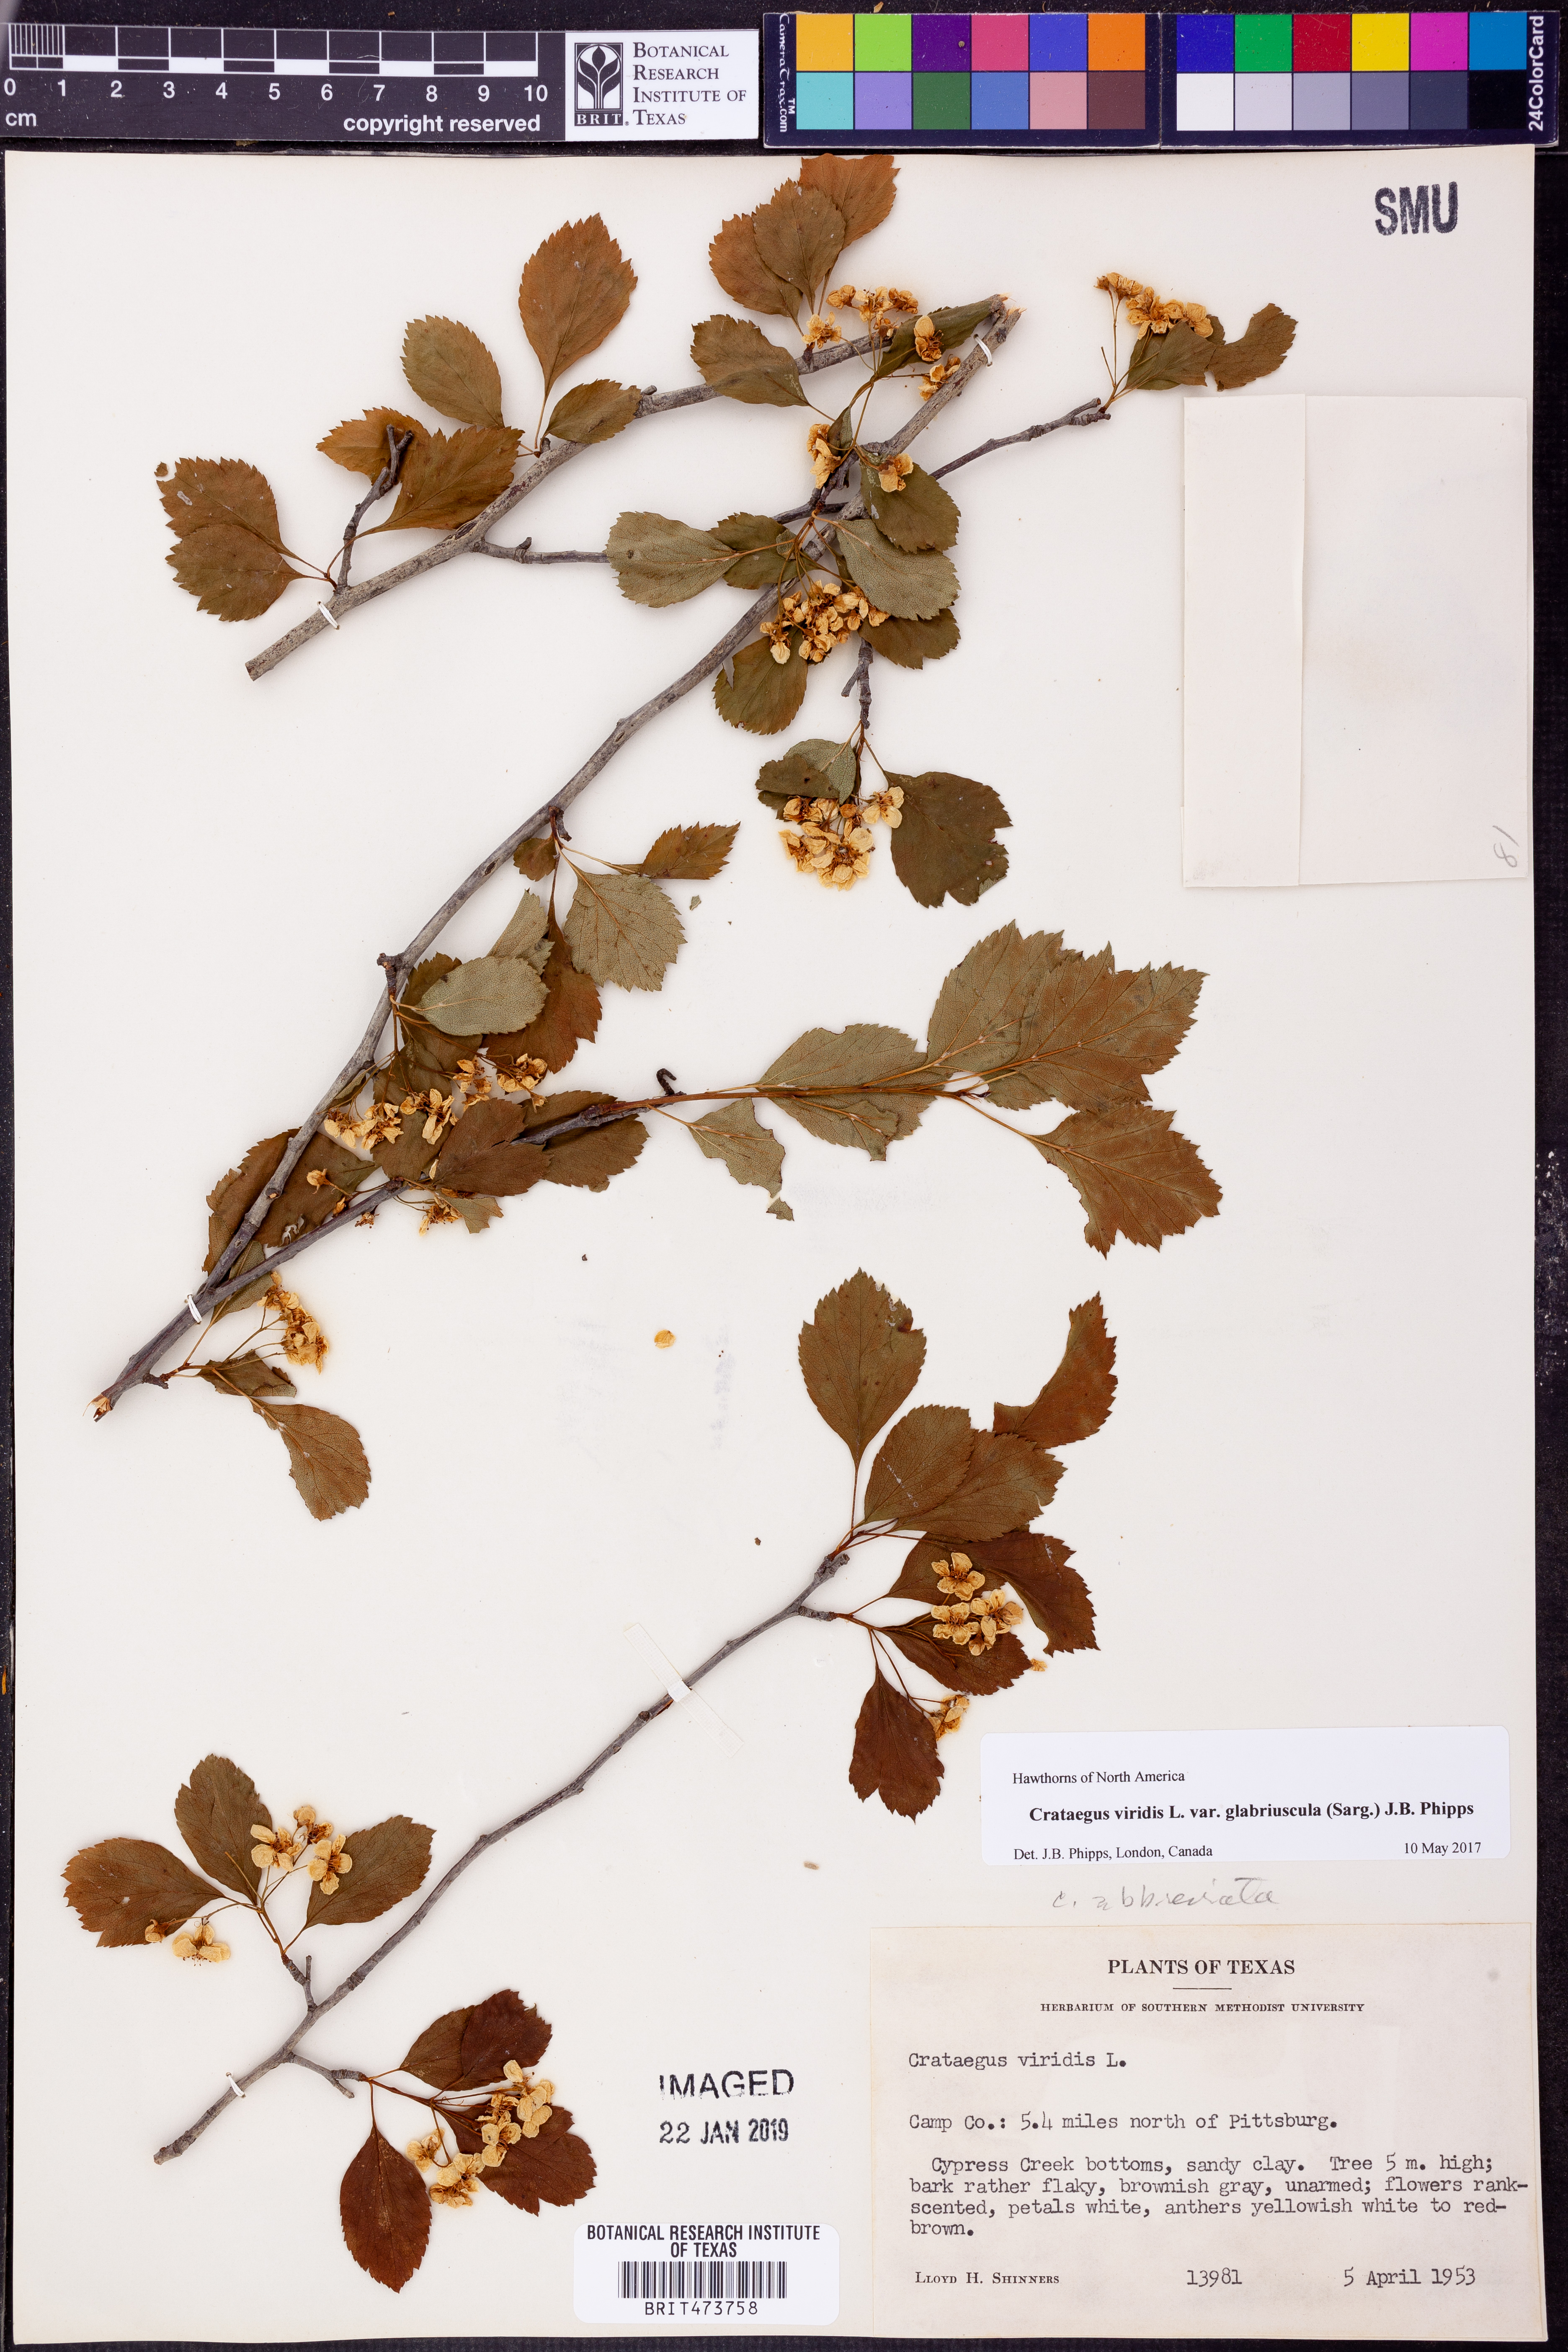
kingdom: Plantae
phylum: Tracheophyta
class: Magnoliopsida
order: Rosales
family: Rosaceae
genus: Crataegus
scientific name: Crataegus viridis
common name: Southernthorn
